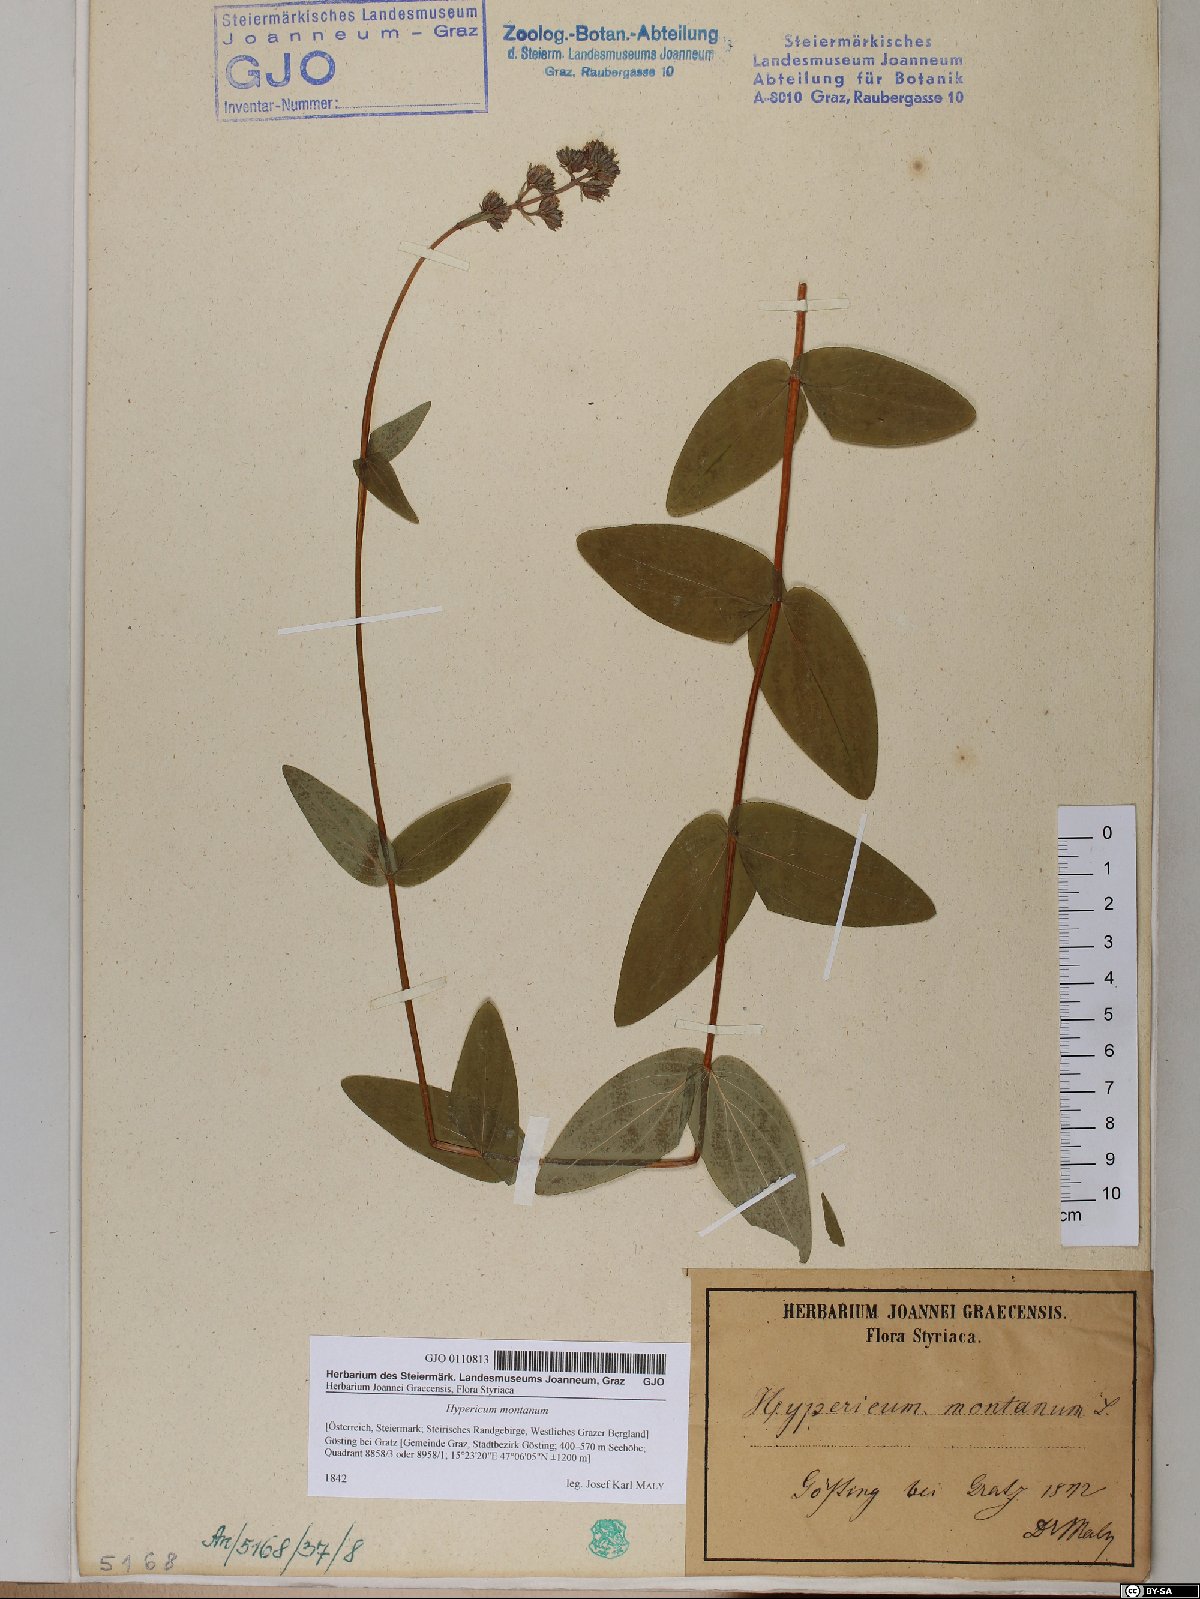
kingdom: Plantae
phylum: Tracheophyta
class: Magnoliopsida
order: Malpighiales
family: Hypericaceae
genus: Hypericum
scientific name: Hypericum montanum
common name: Pale st. john's-wort
